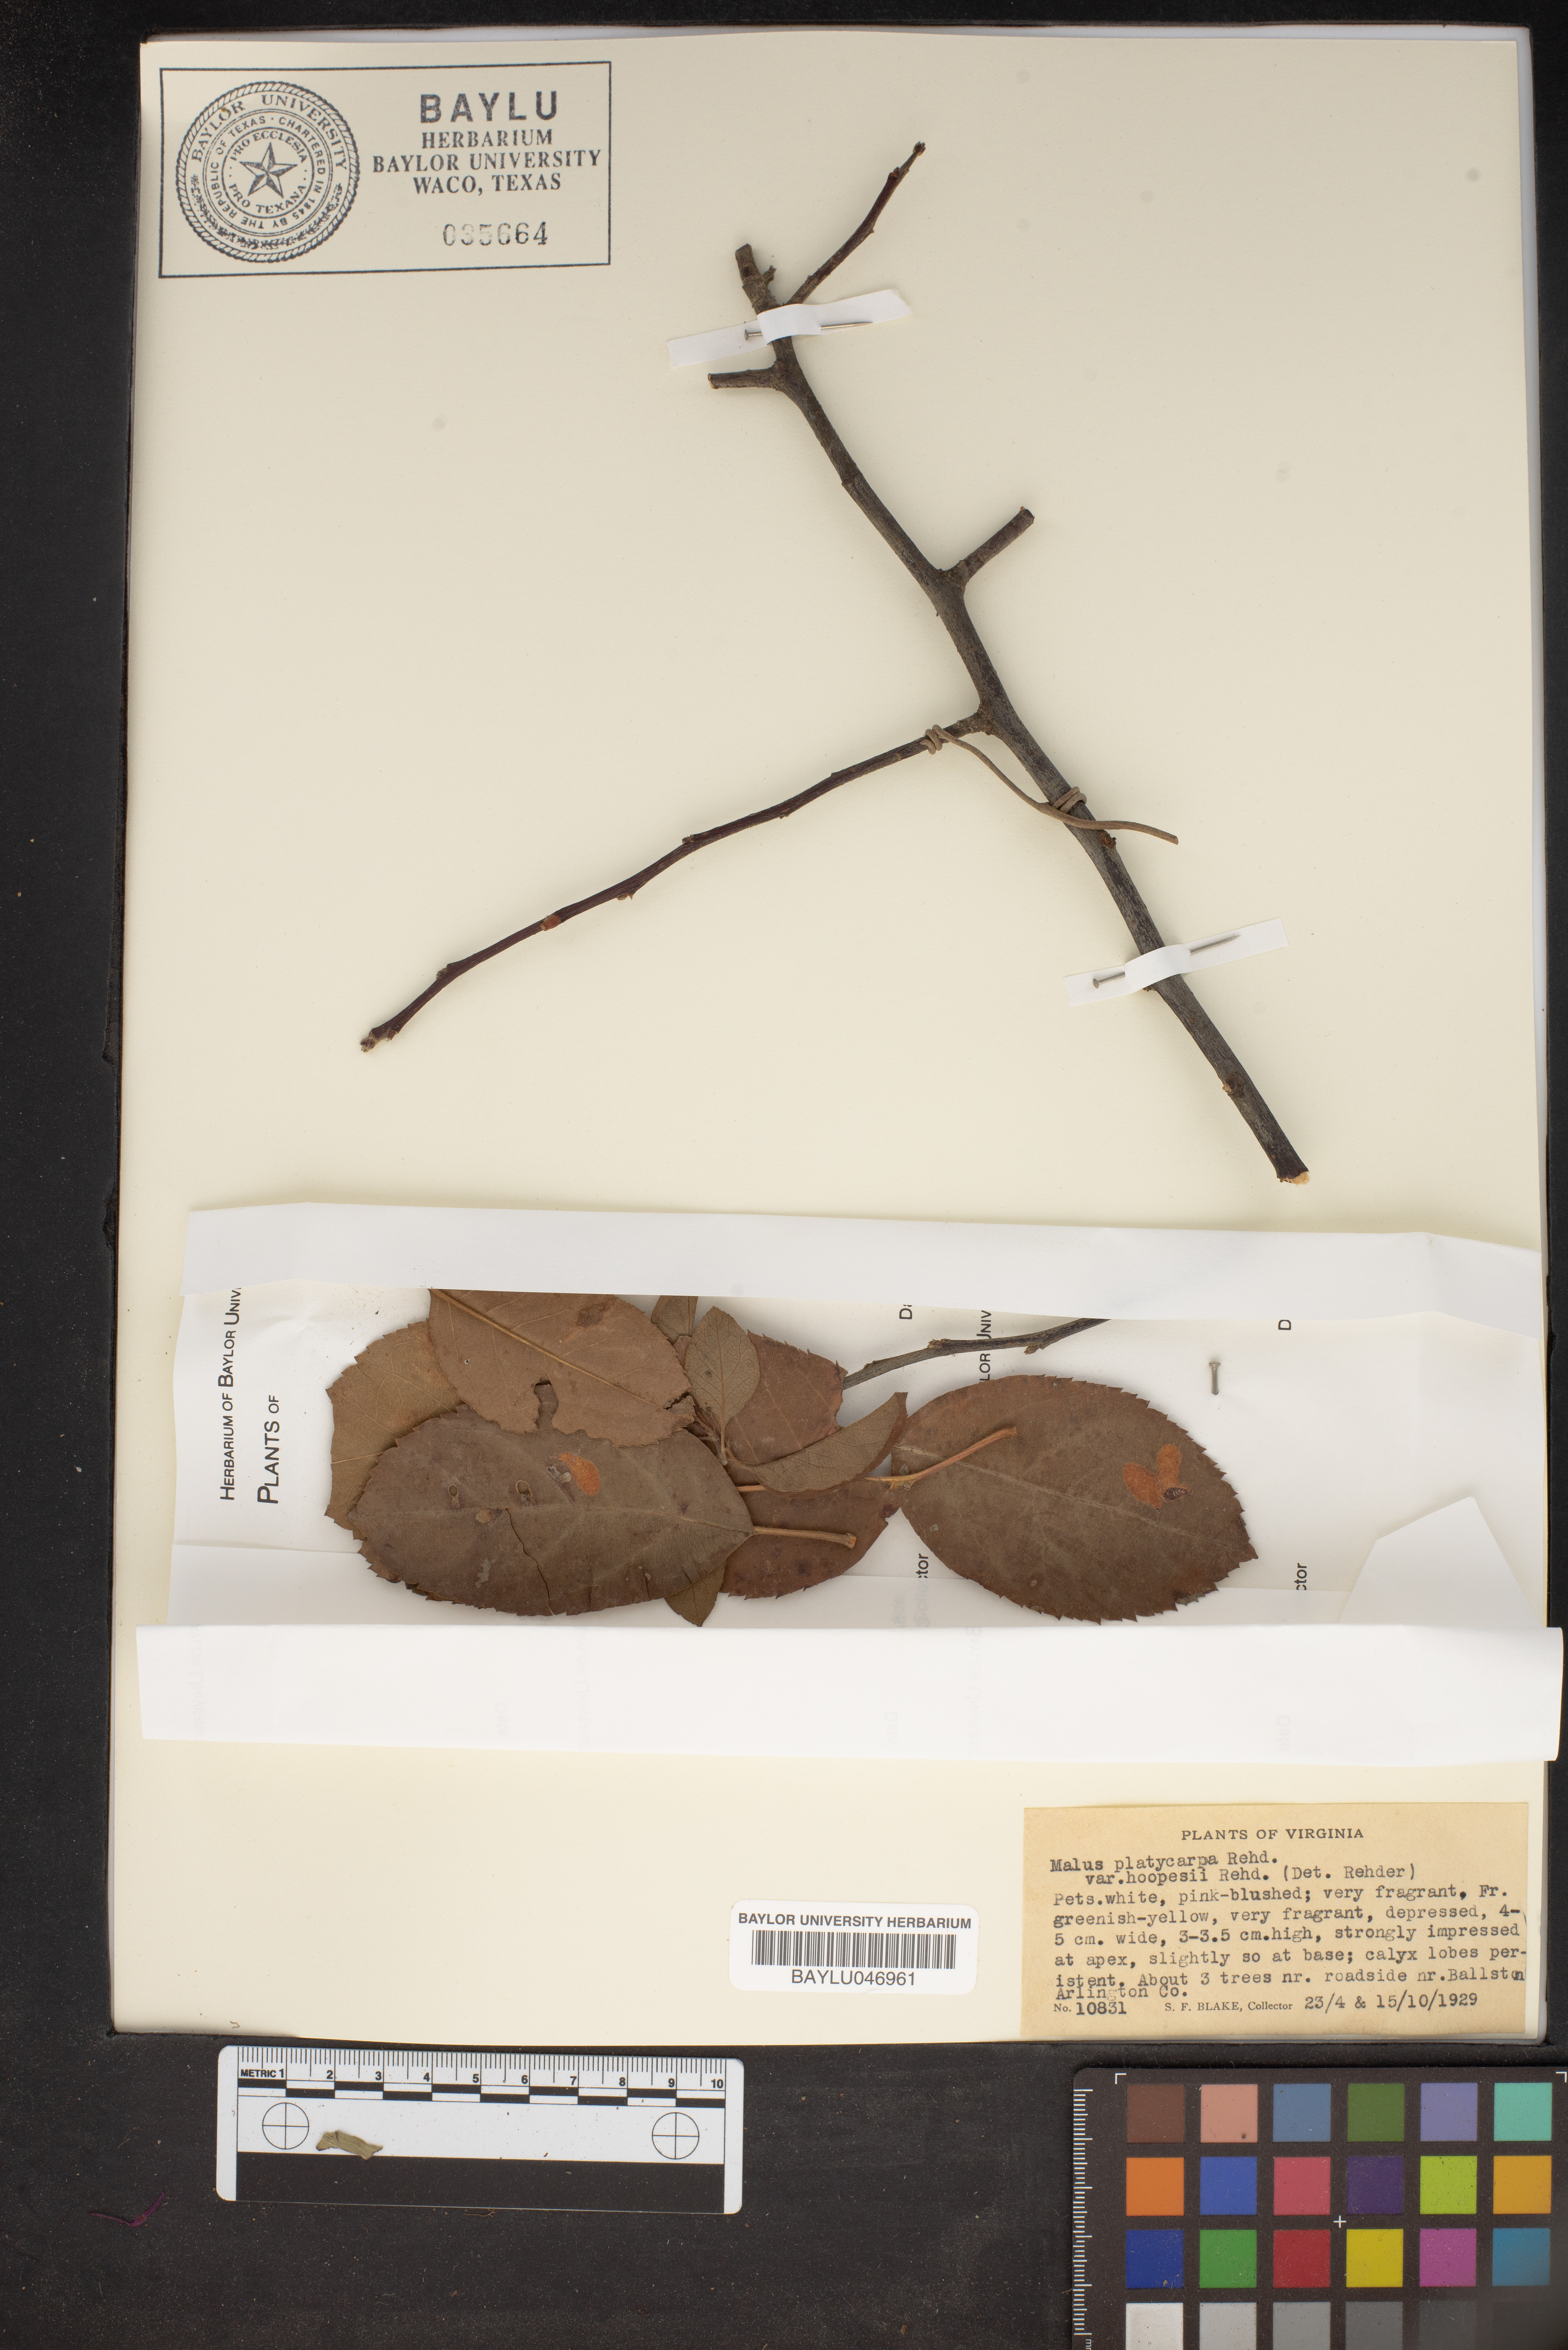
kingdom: Plantae
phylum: Tracheophyta
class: Magnoliopsida
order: Rosales
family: Rosaceae
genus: Malus
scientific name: Malus platycarpa
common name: Bigfruit crab
